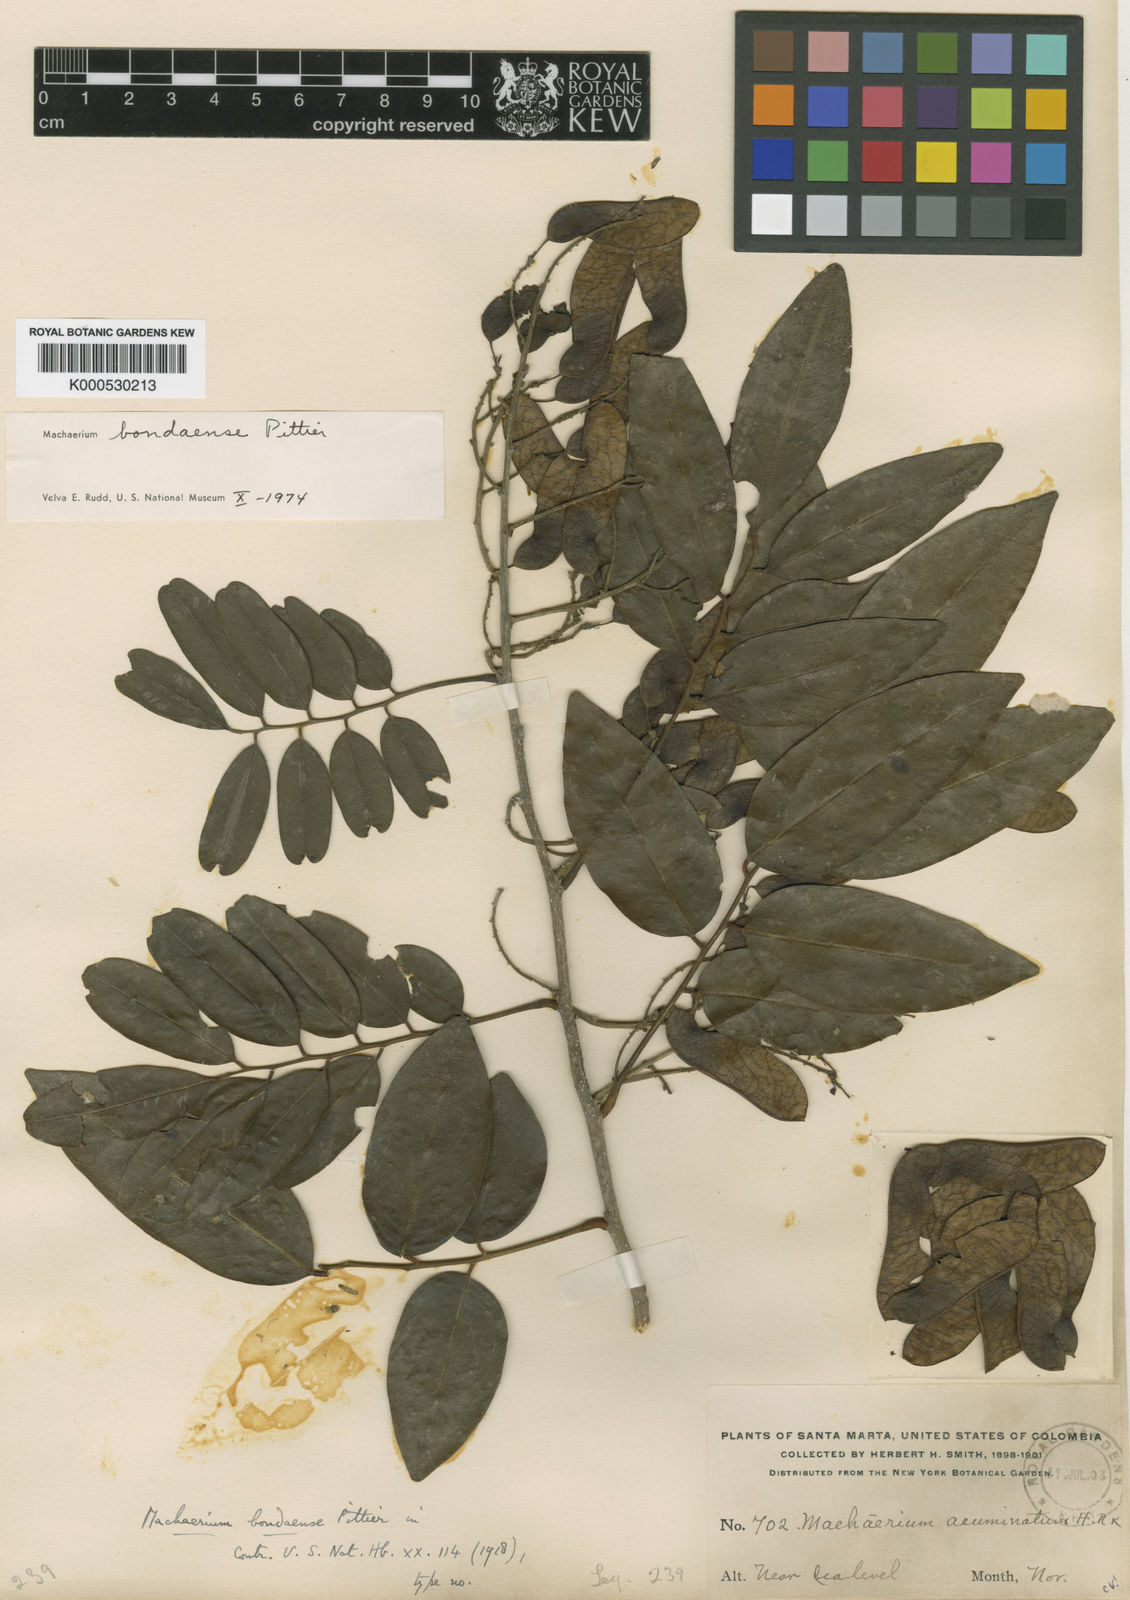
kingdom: Plantae
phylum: Tracheophyta
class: Magnoliopsida
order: Fabales
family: Fabaceae
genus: Machaerium
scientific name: Machaerium bondaense
